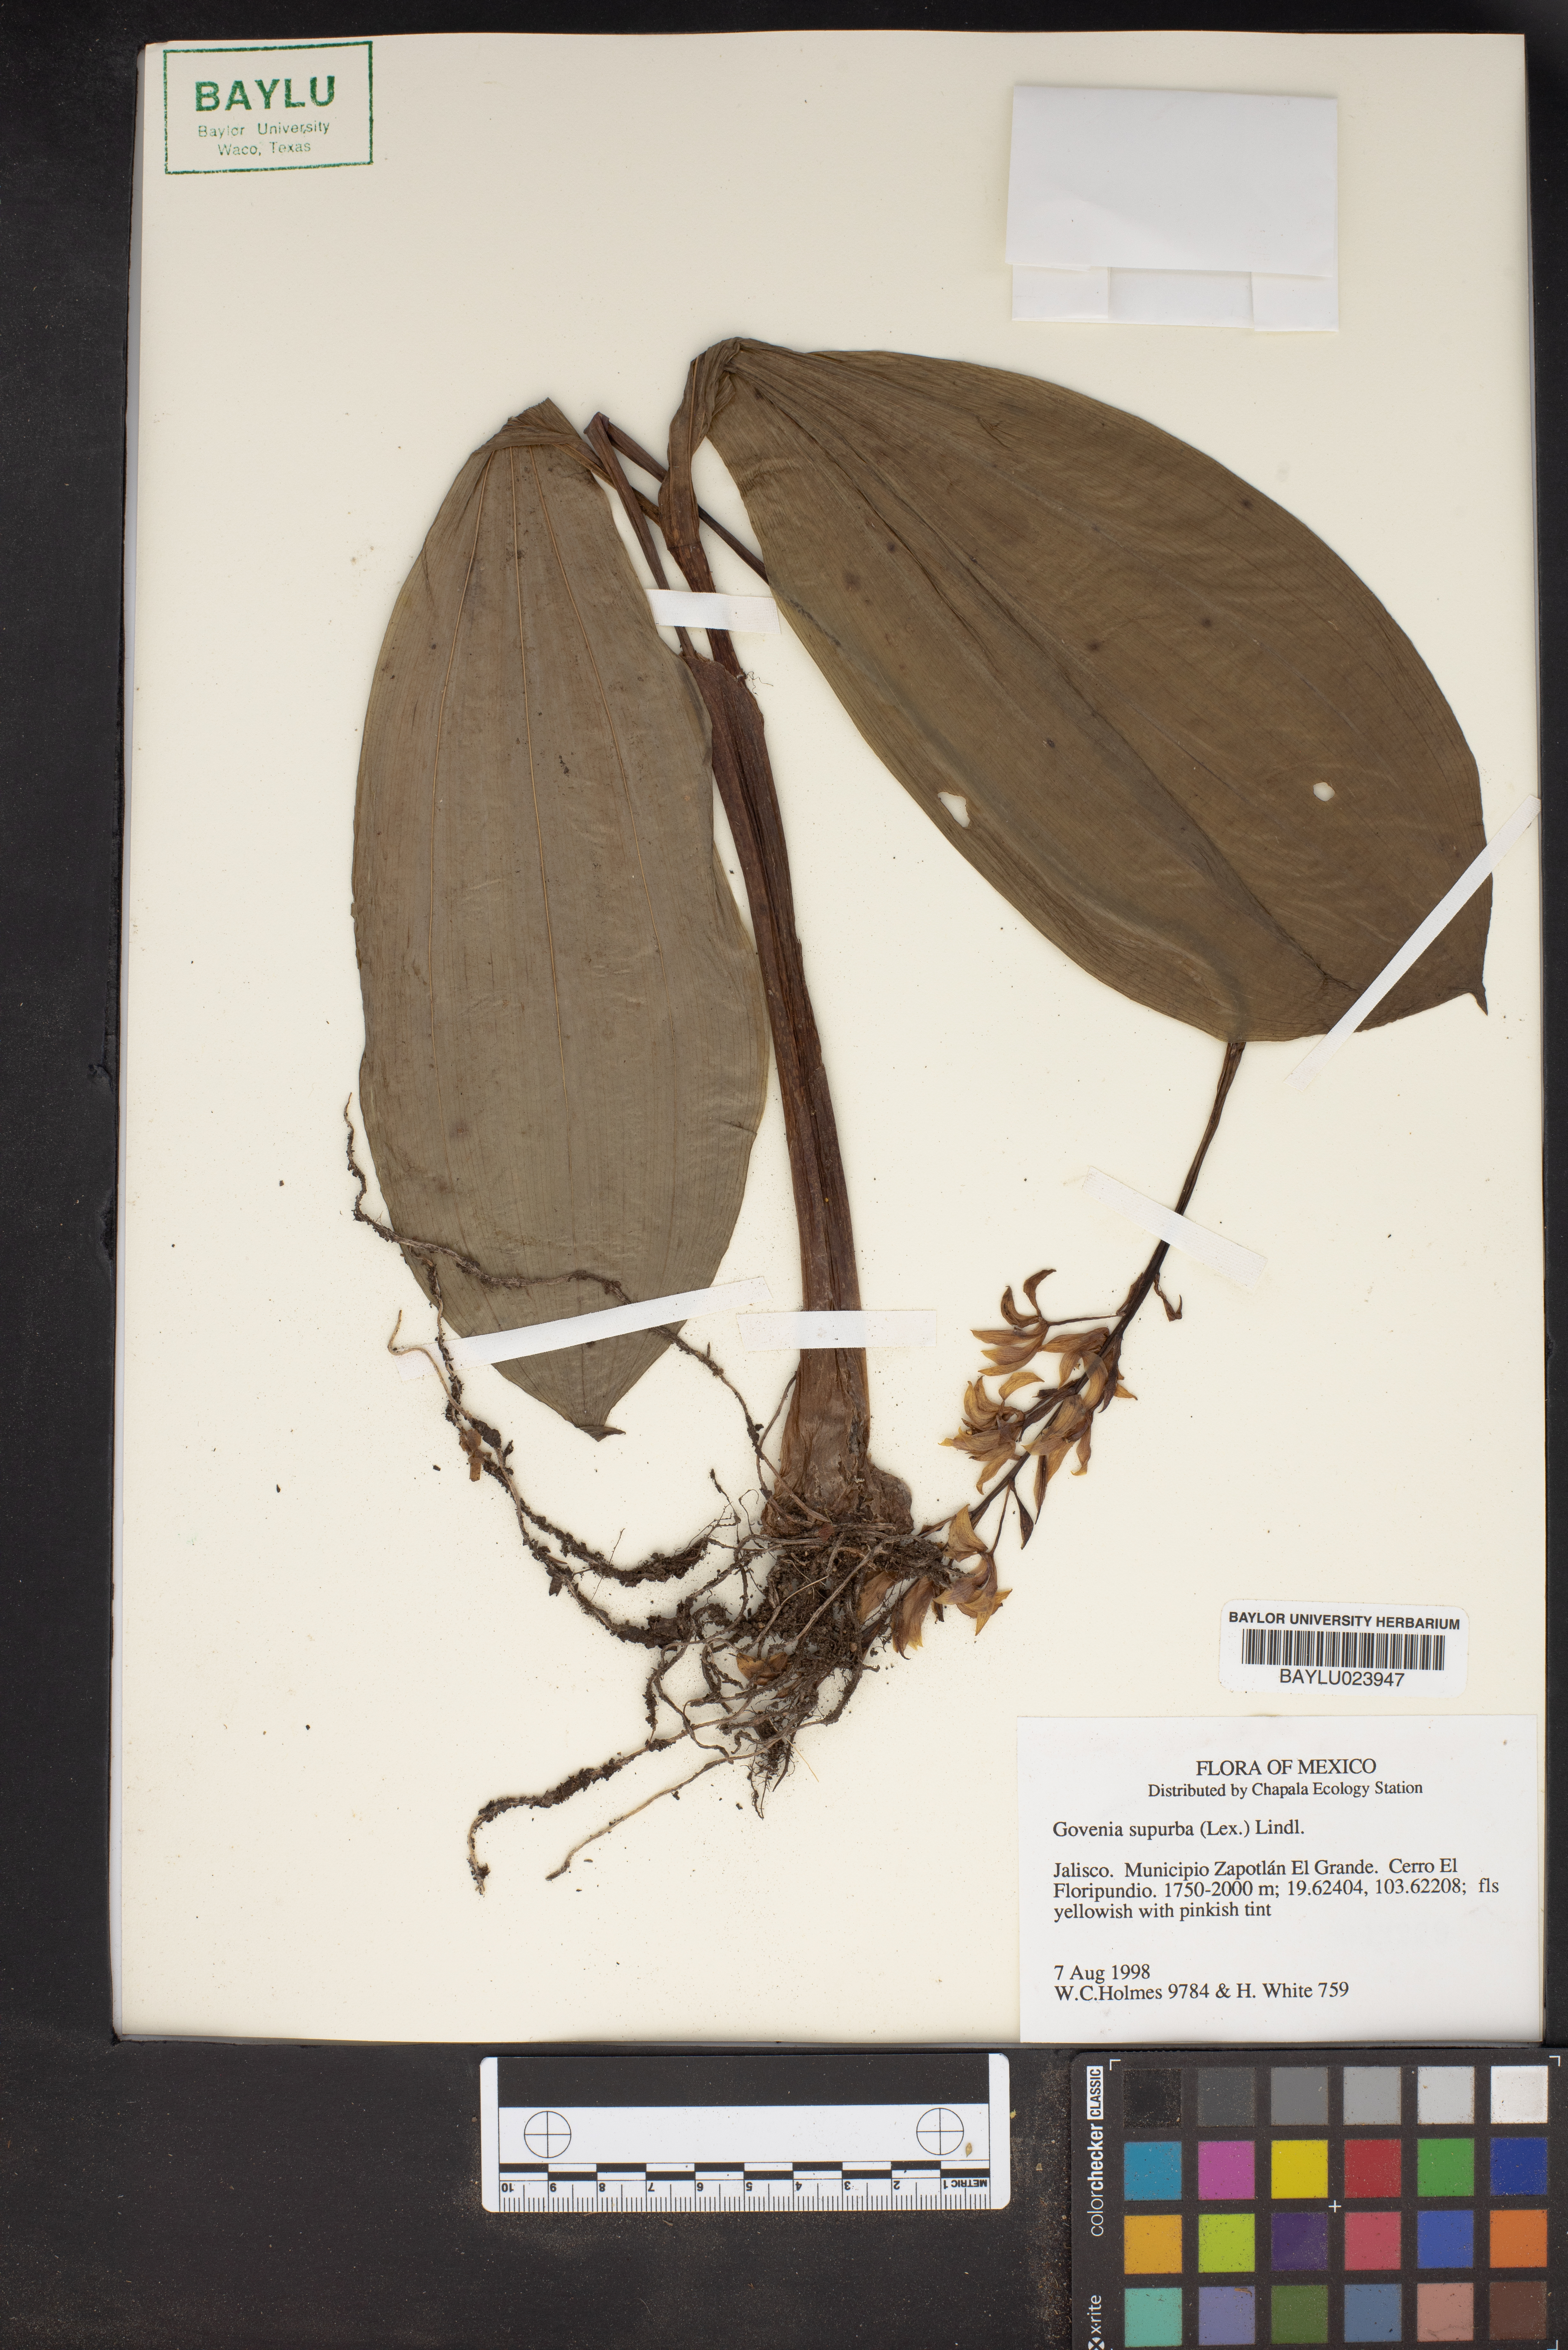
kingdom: Plantae
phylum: Tracheophyta
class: Liliopsida
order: Asparagales
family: Orchidaceae
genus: Govenia
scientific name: Govenia superba
